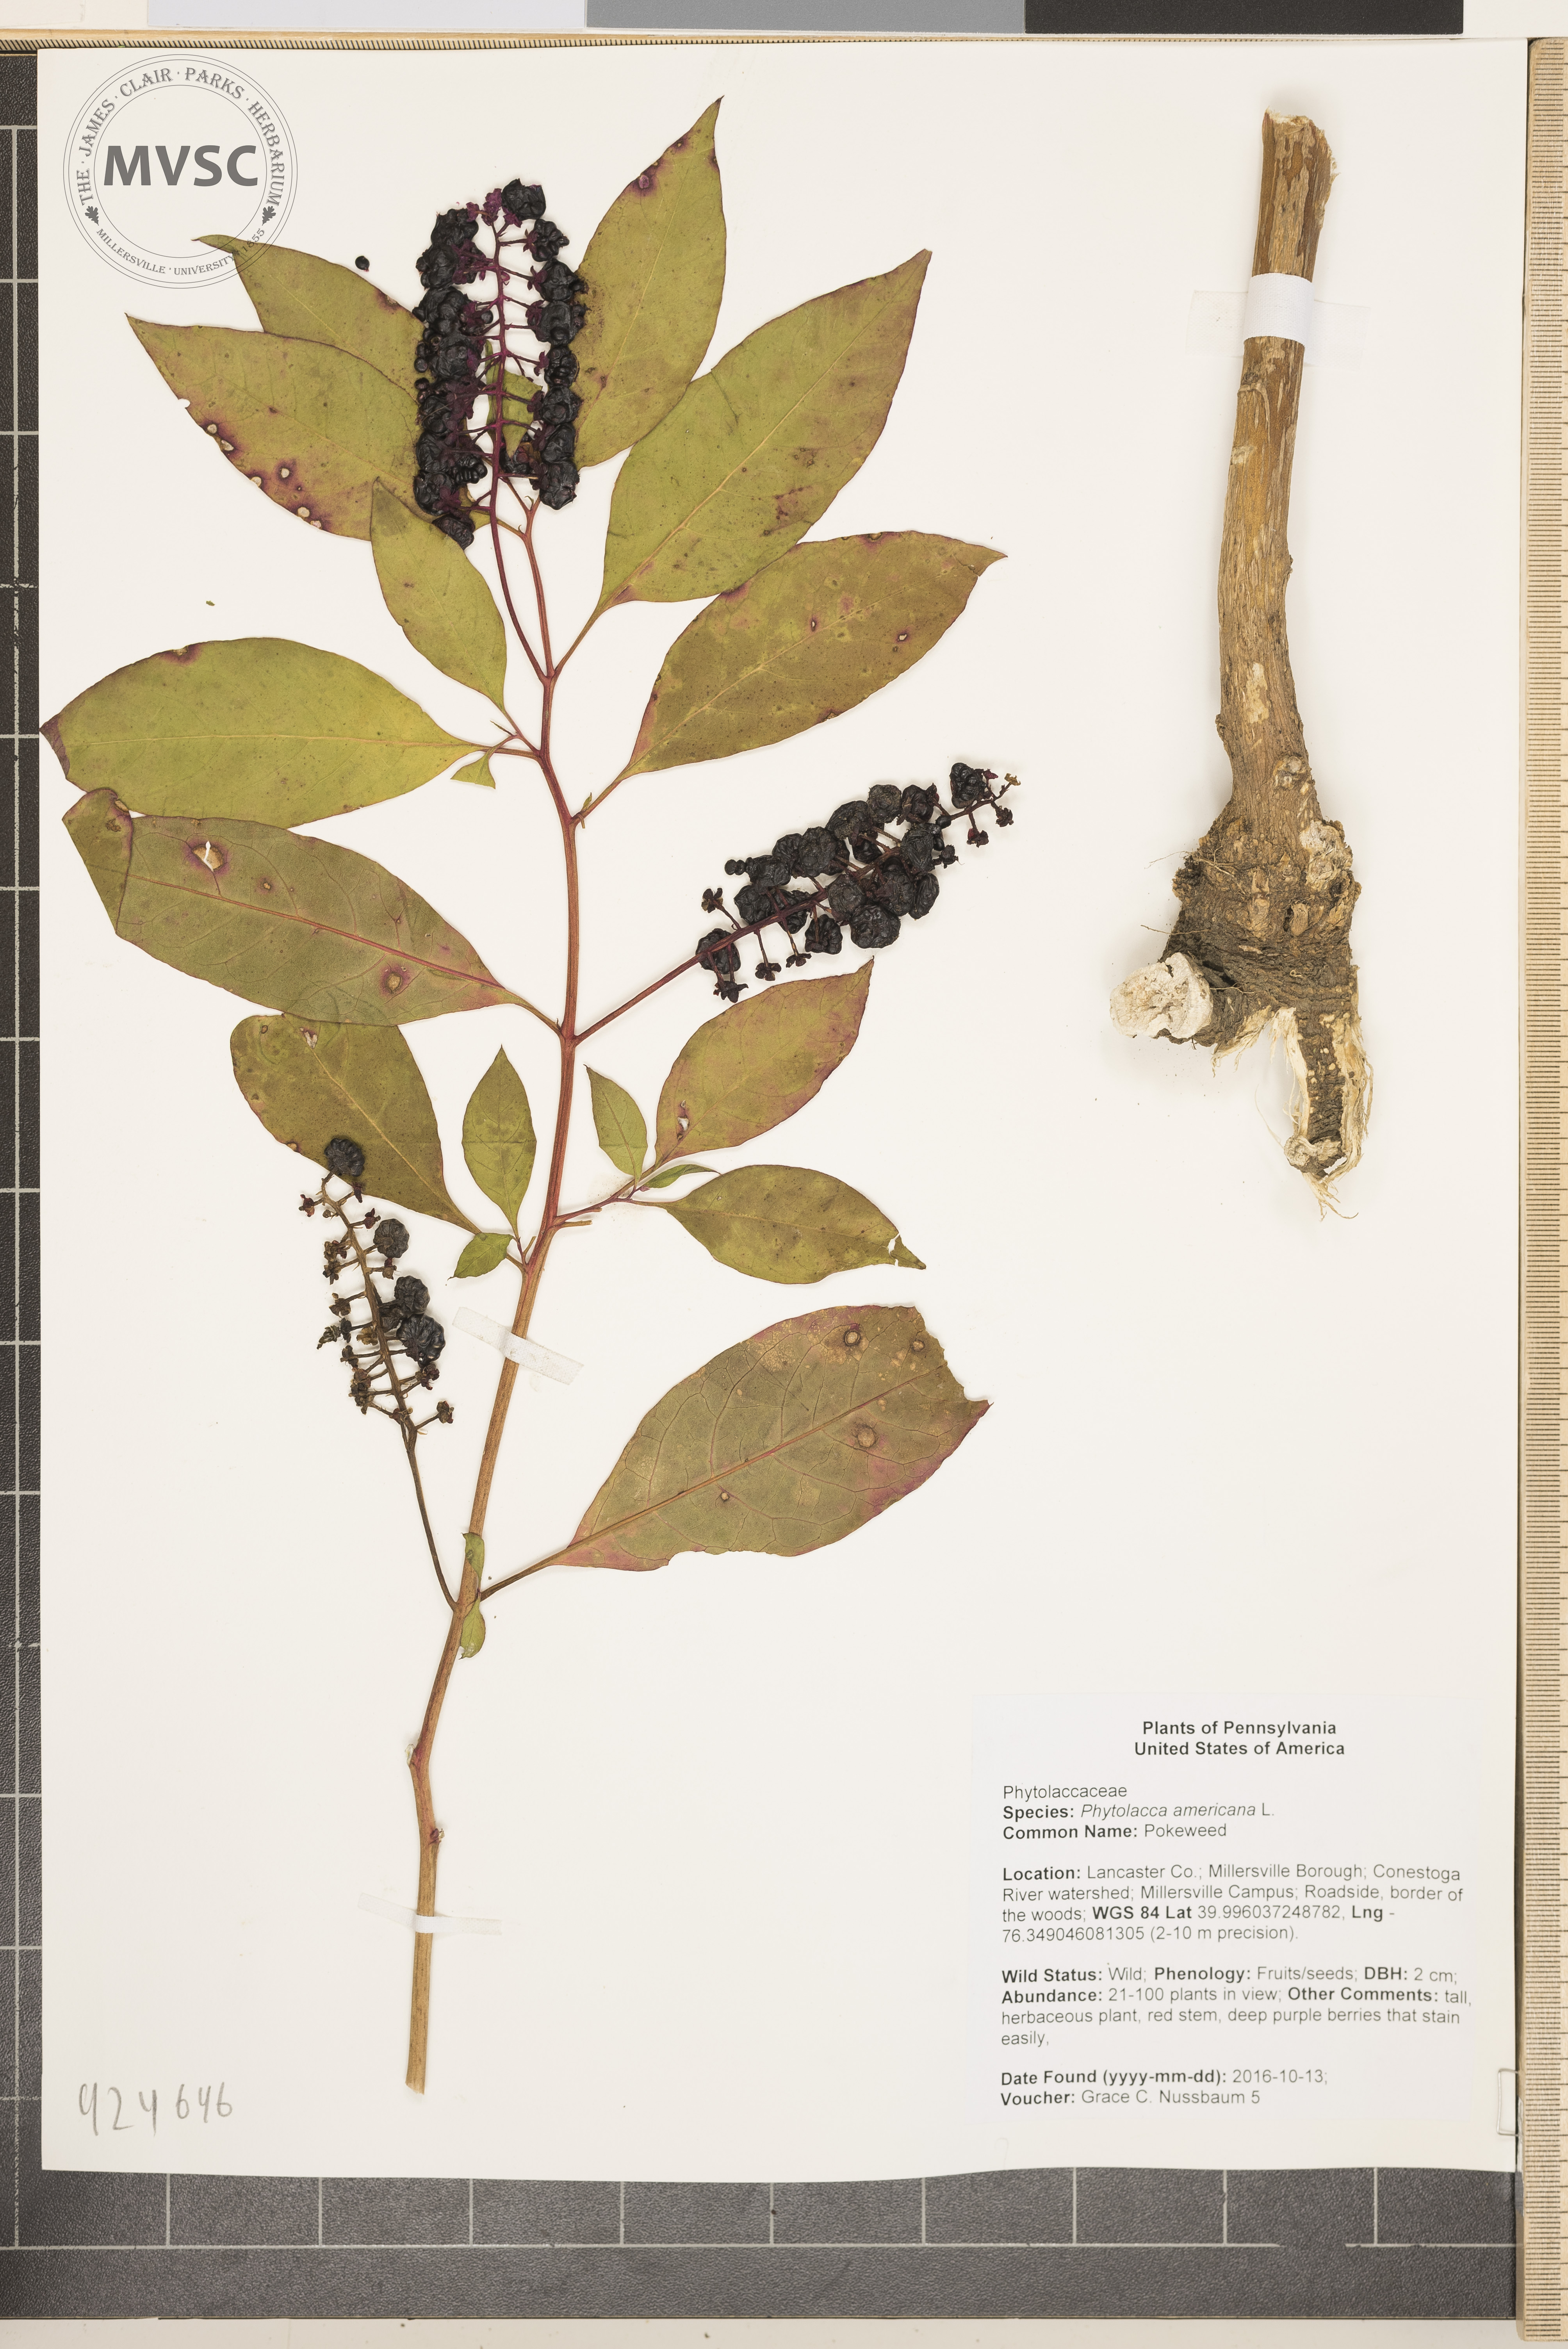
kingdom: Plantae
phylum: Tracheophyta
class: Magnoliopsida
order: Caryophyllales
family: Phytolaccaceae
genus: Phytolacca
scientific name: Phytolacca americana
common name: Pokeweed
